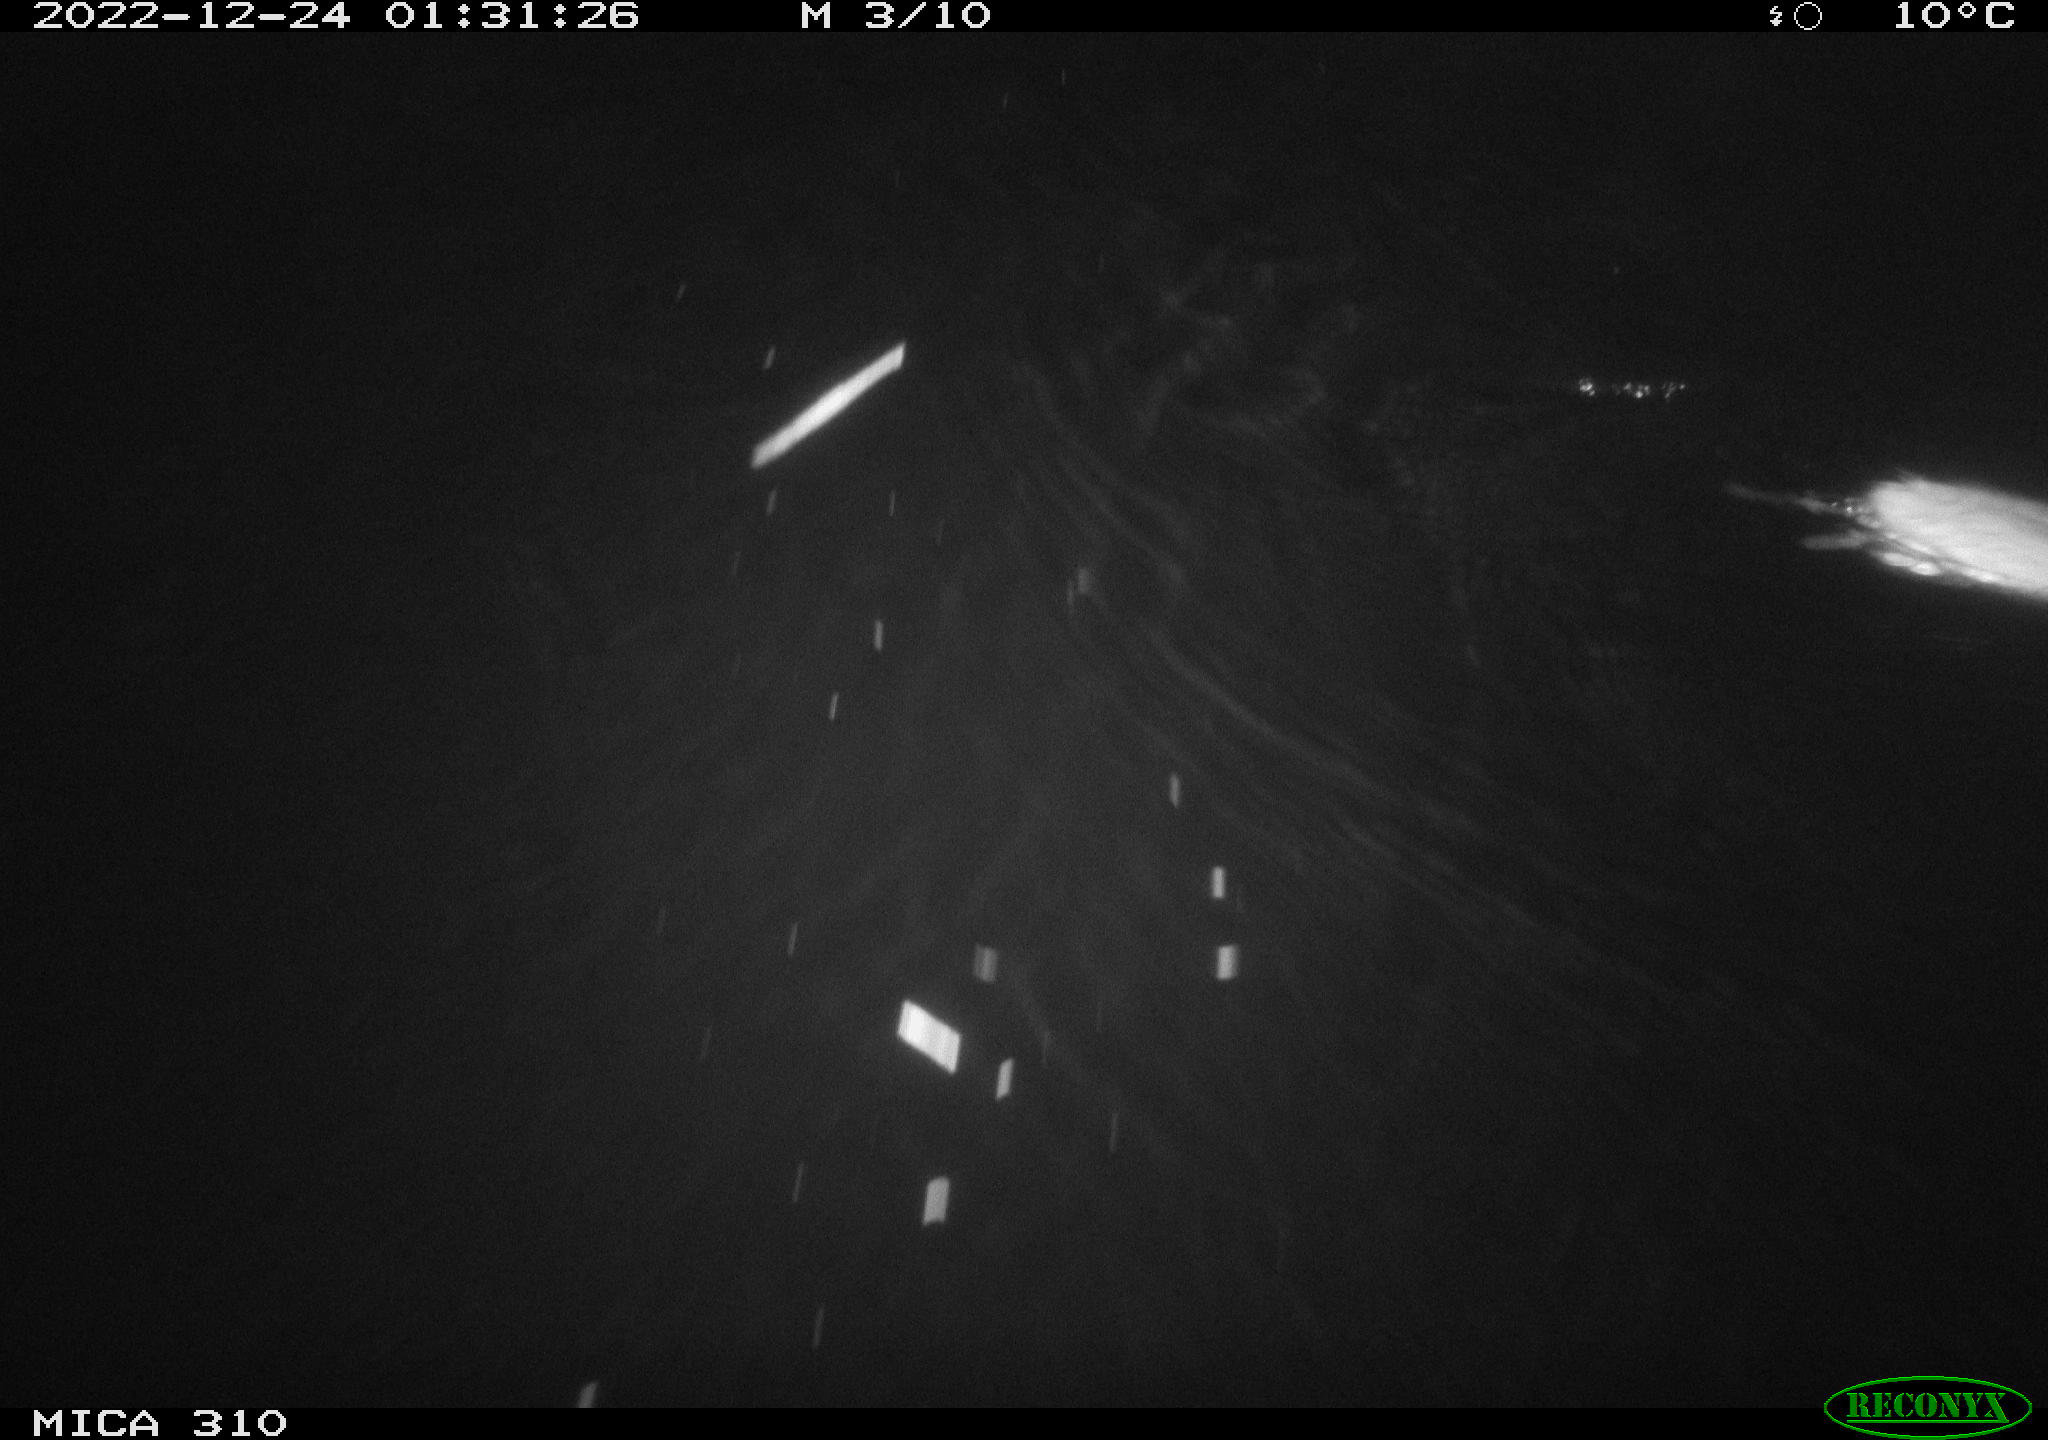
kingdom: Animalia
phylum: Chordata
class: Mammalia
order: Rodentia
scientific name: Rodentia
